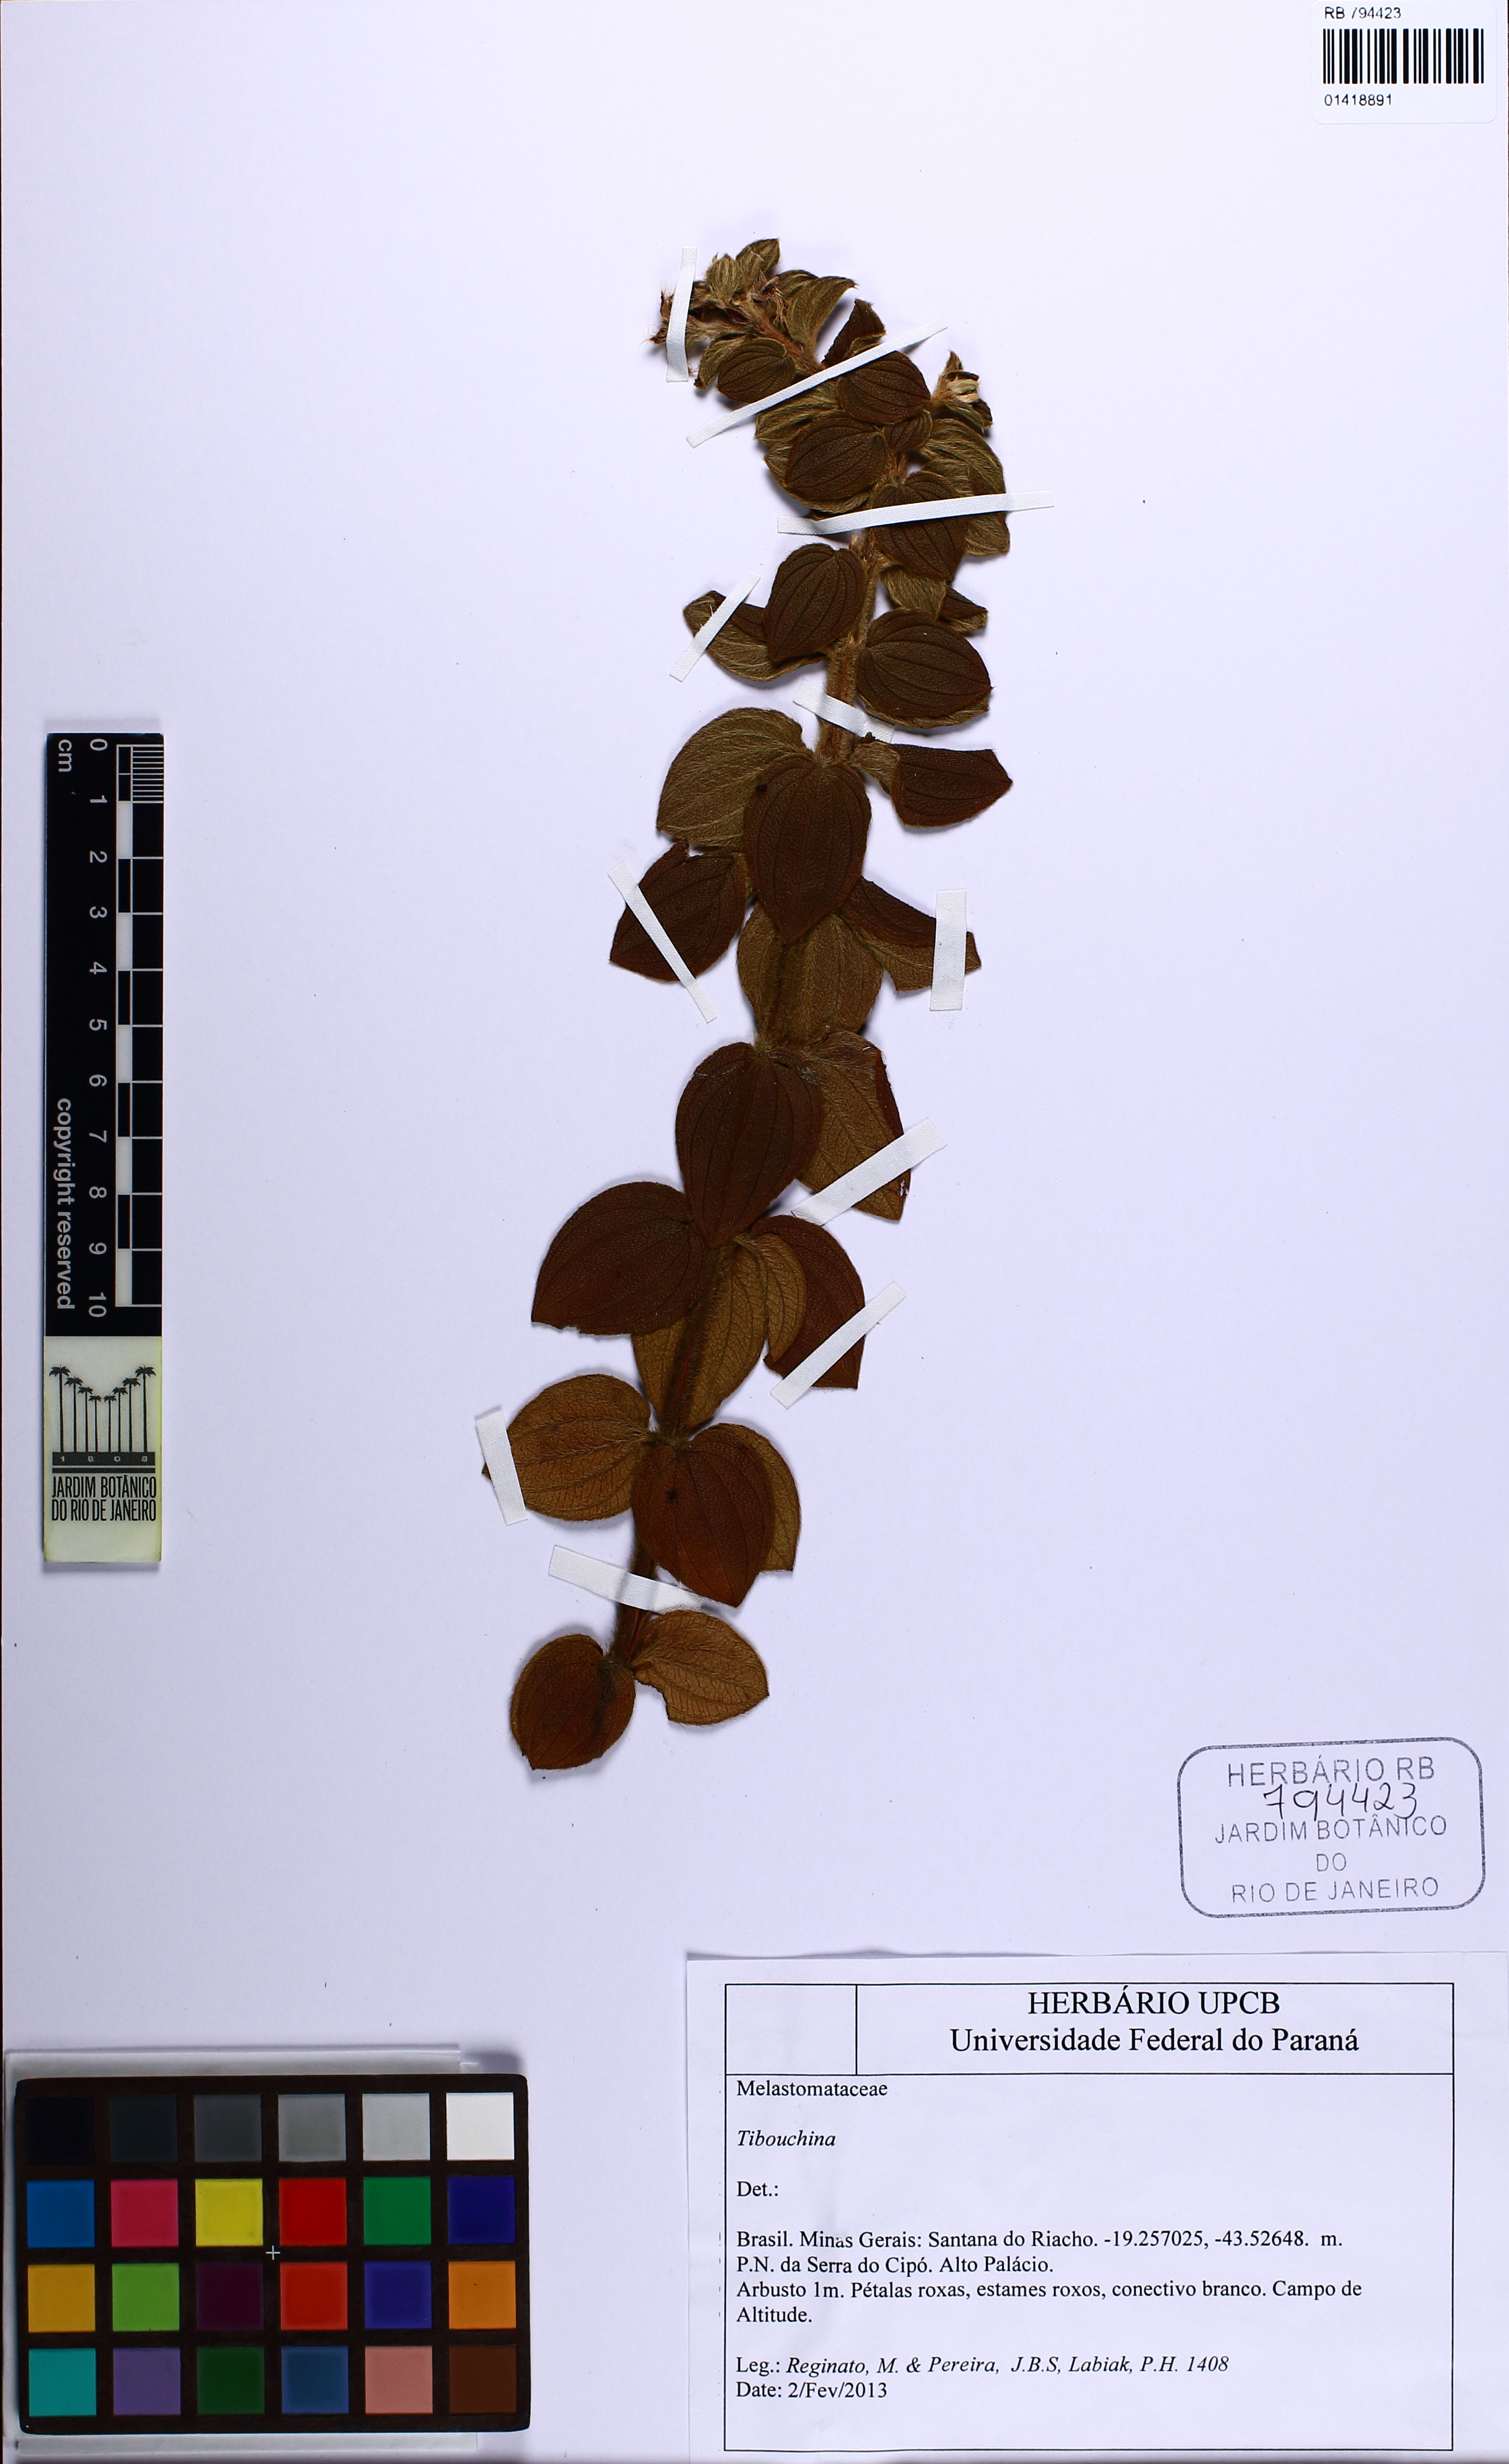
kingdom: Plantae
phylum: Tracheophyta
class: Magnoliopsida
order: Myrtales
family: Melastomataceae
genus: Tibouchina
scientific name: Tibouchina
